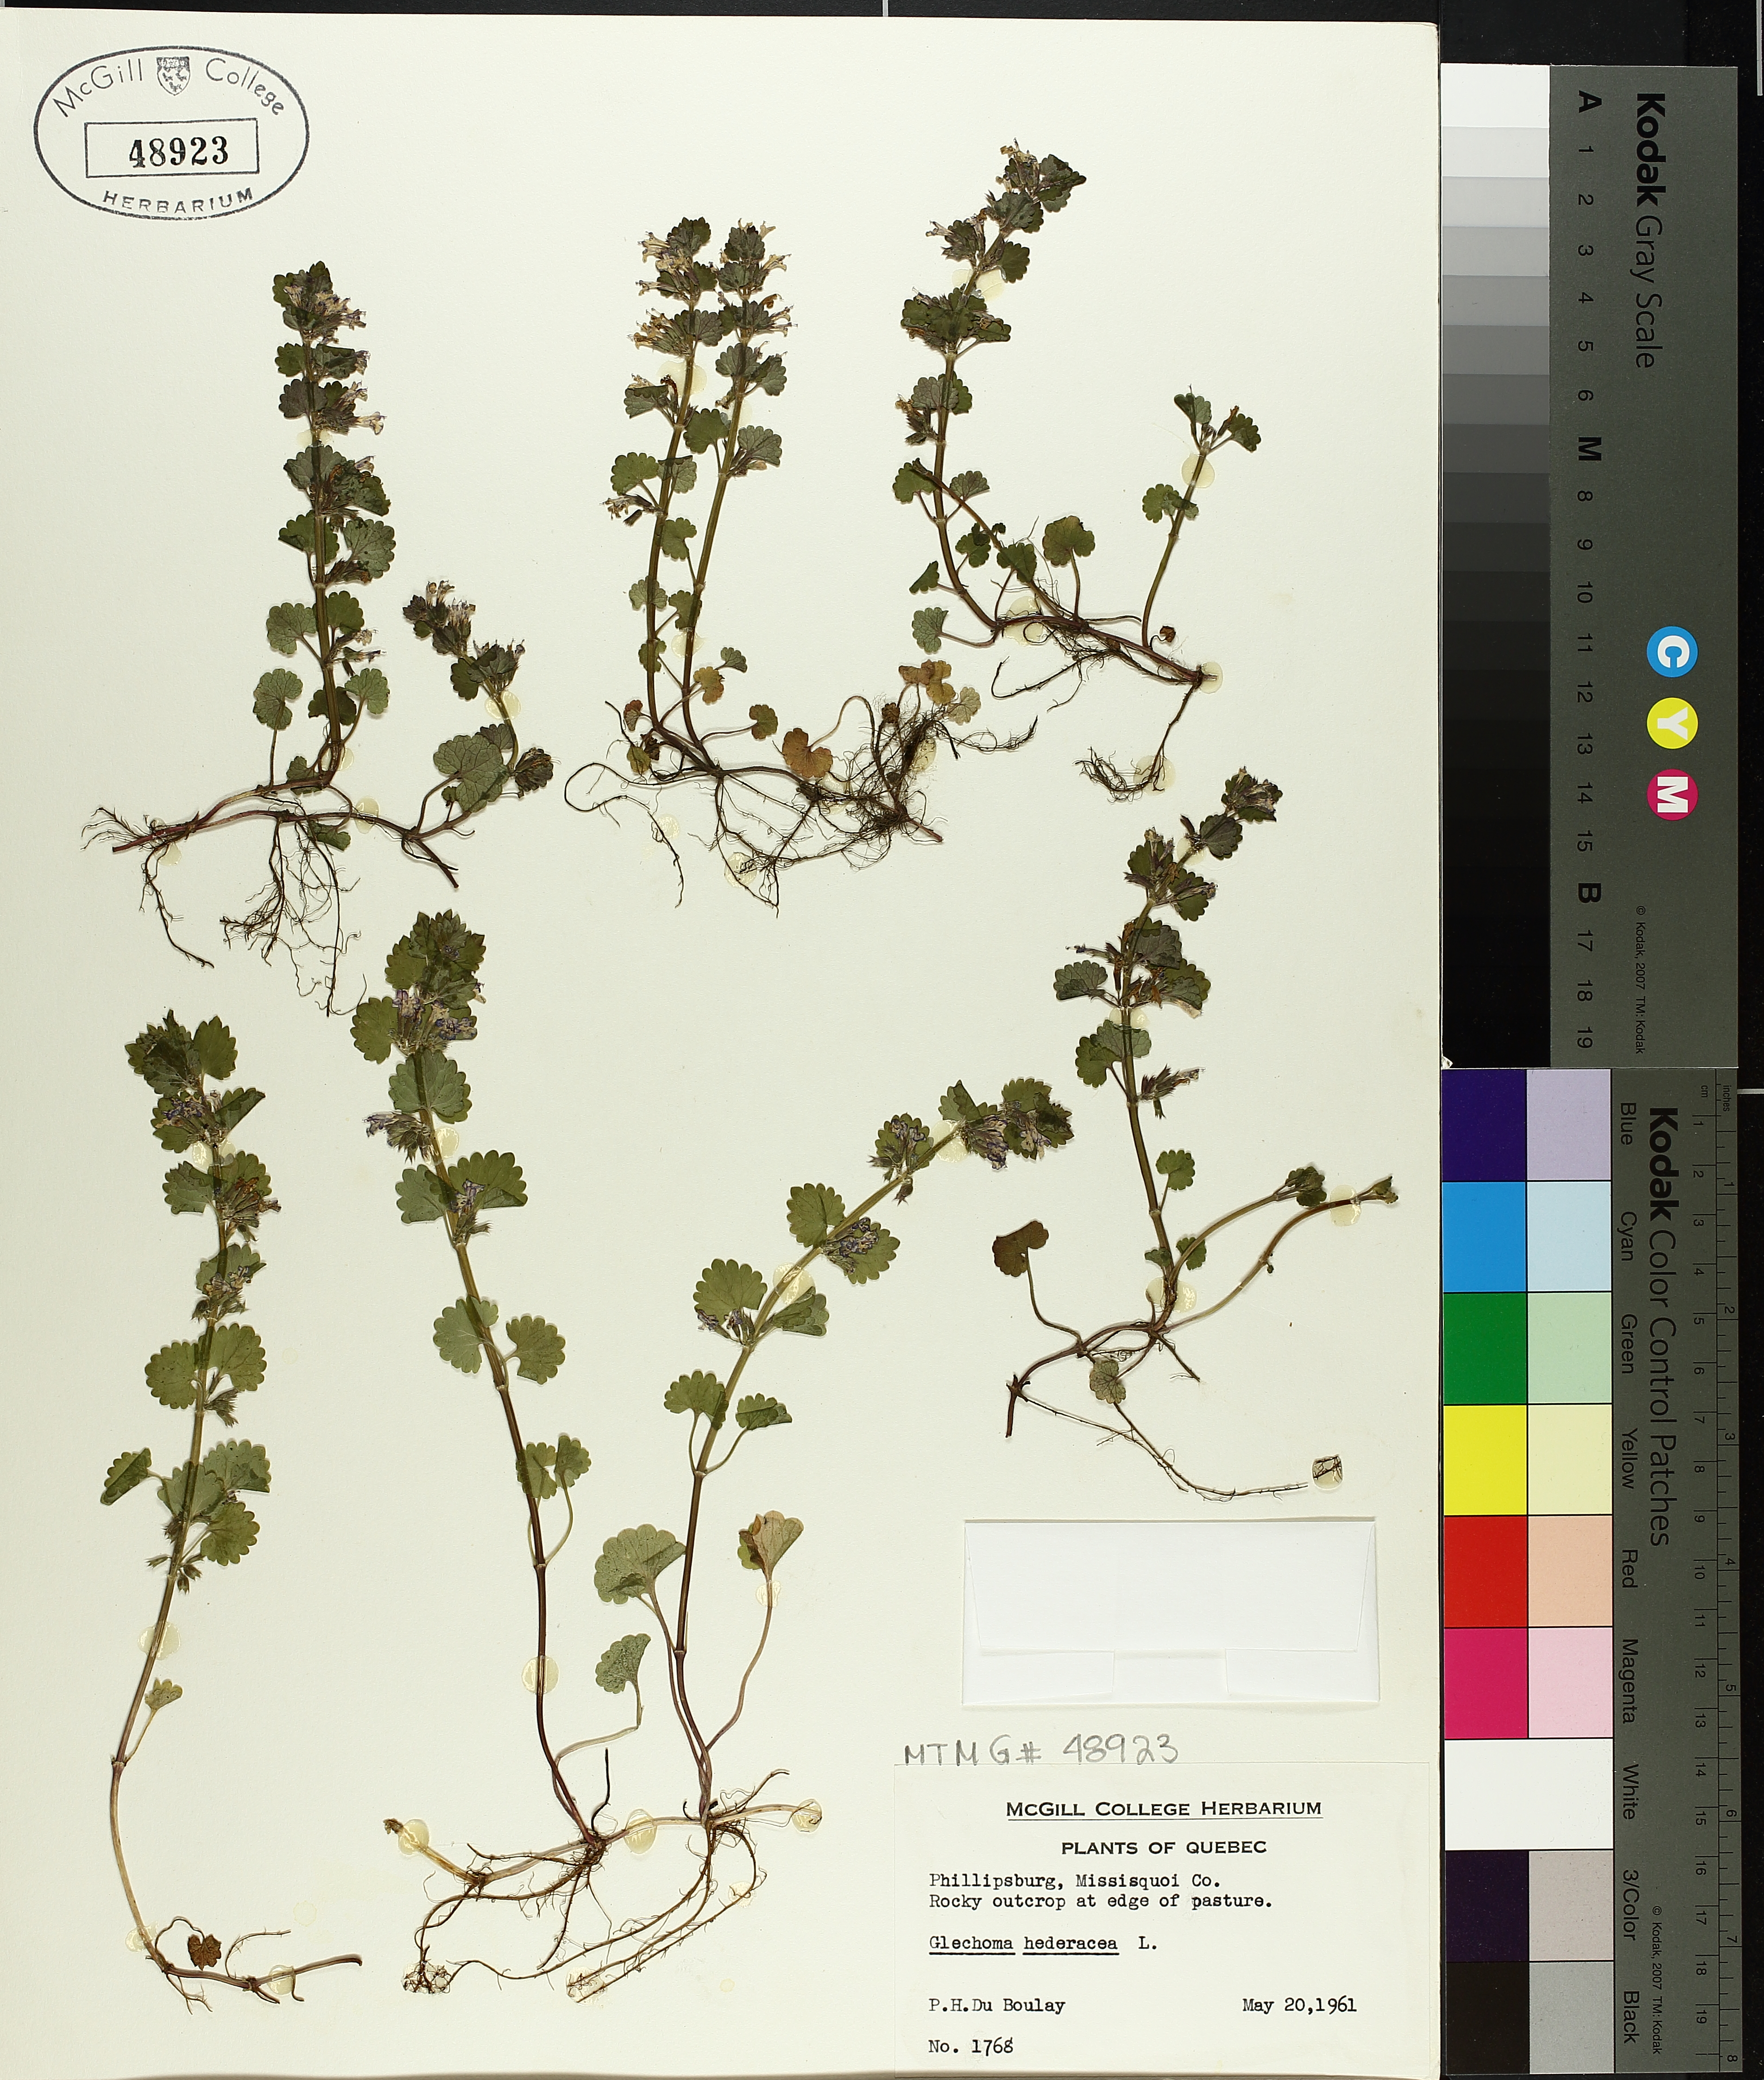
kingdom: Plantae
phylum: Tracheophyta
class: Magnoliopsida
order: Lamiales
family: Lamiaceae
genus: Glechoma
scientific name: Glechoma hederacea
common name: Ground ivy
